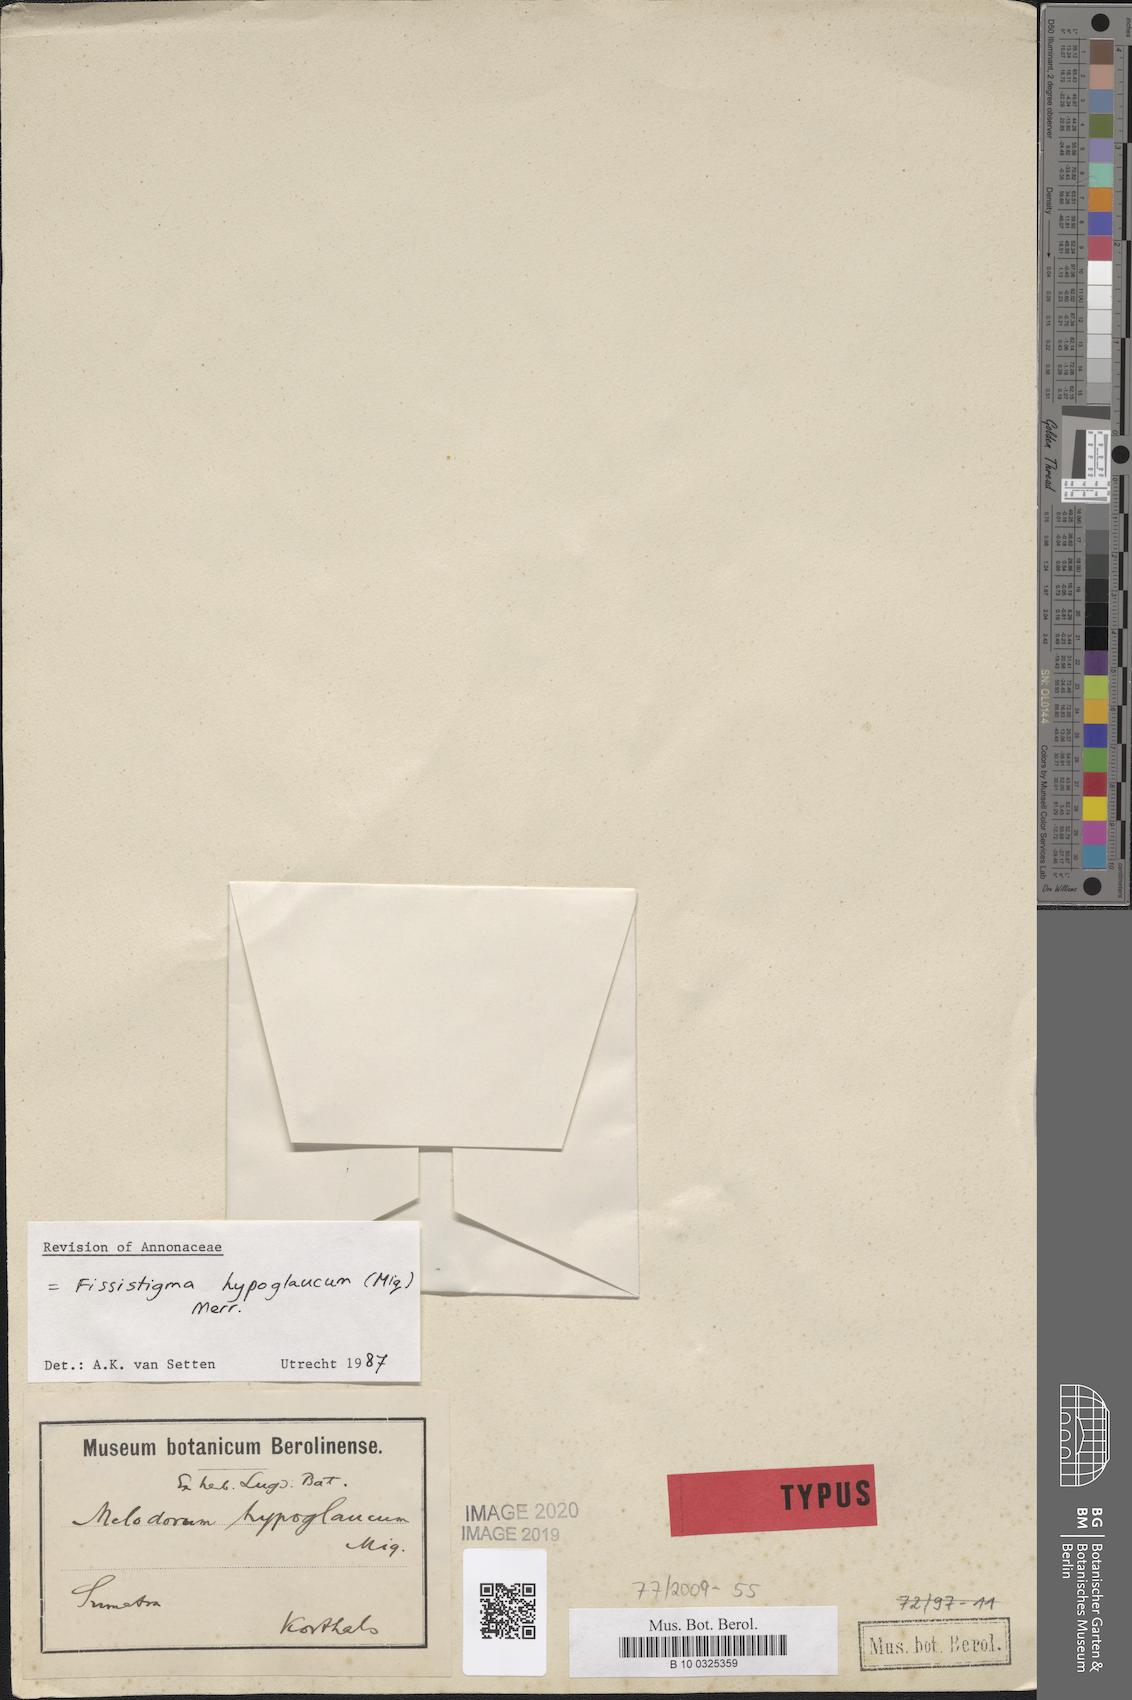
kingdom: Plantae
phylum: Tracheophyta
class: Magnoliopsida
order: Magnoliales
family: Annonaceae
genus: Fissistigma
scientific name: Fissistigma hypoglaucum
